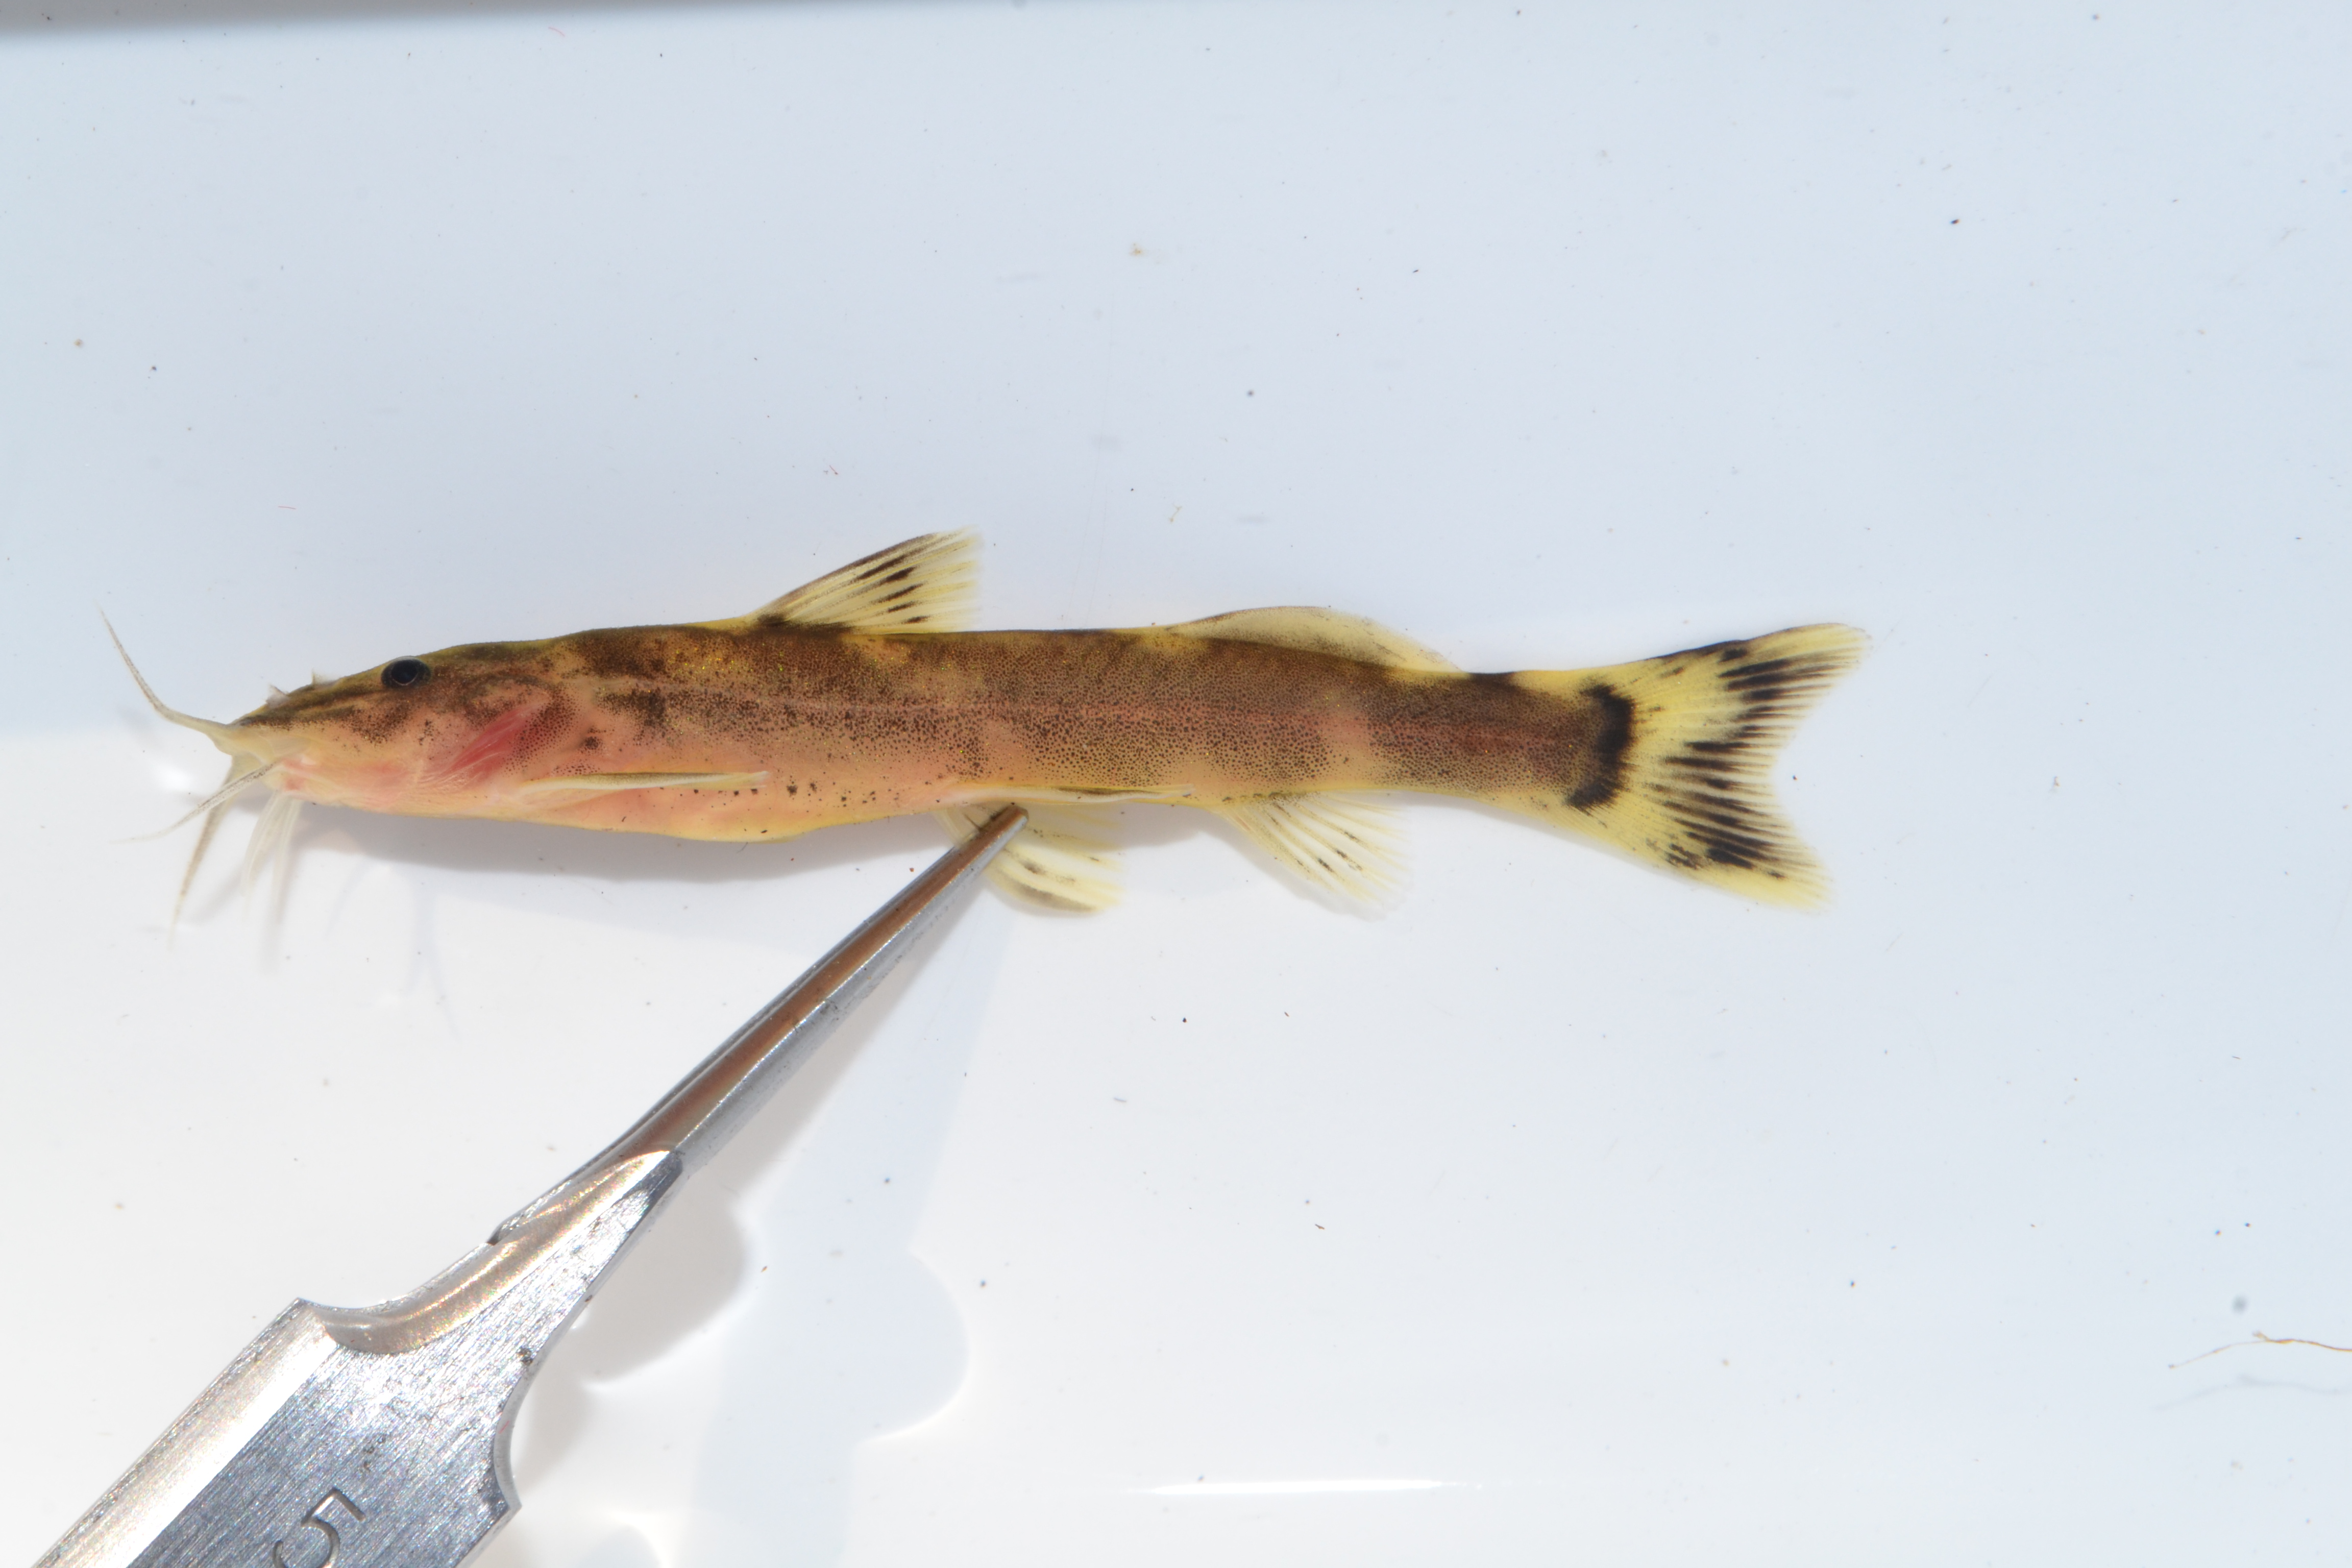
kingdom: Animalia
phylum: Chordata
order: Siluriformes
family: Amphiliidae
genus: Amphilius
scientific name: Amphilius uranoscopus
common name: Stargazer mountain catfish
